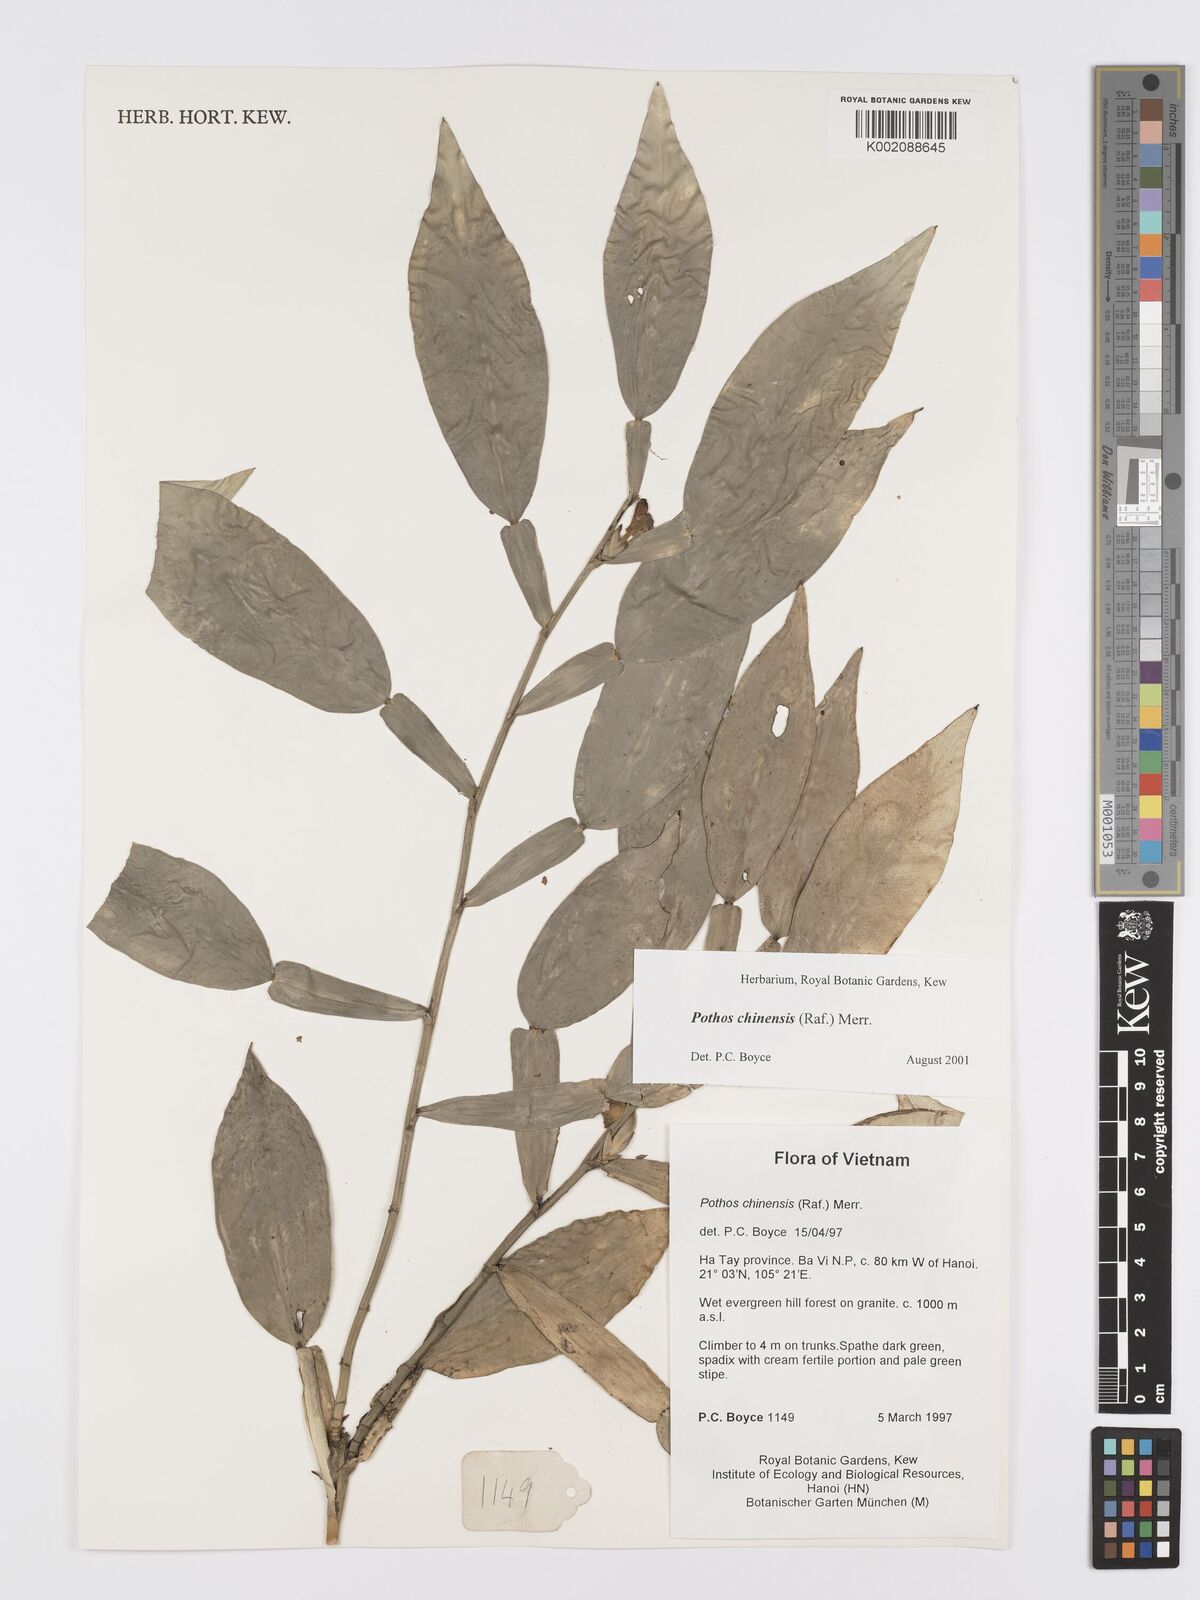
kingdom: Plantae
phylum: Tracheophyta
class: Liliopsida
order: Alismatales
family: Araceae
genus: Pothos
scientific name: Pothos chinensis
